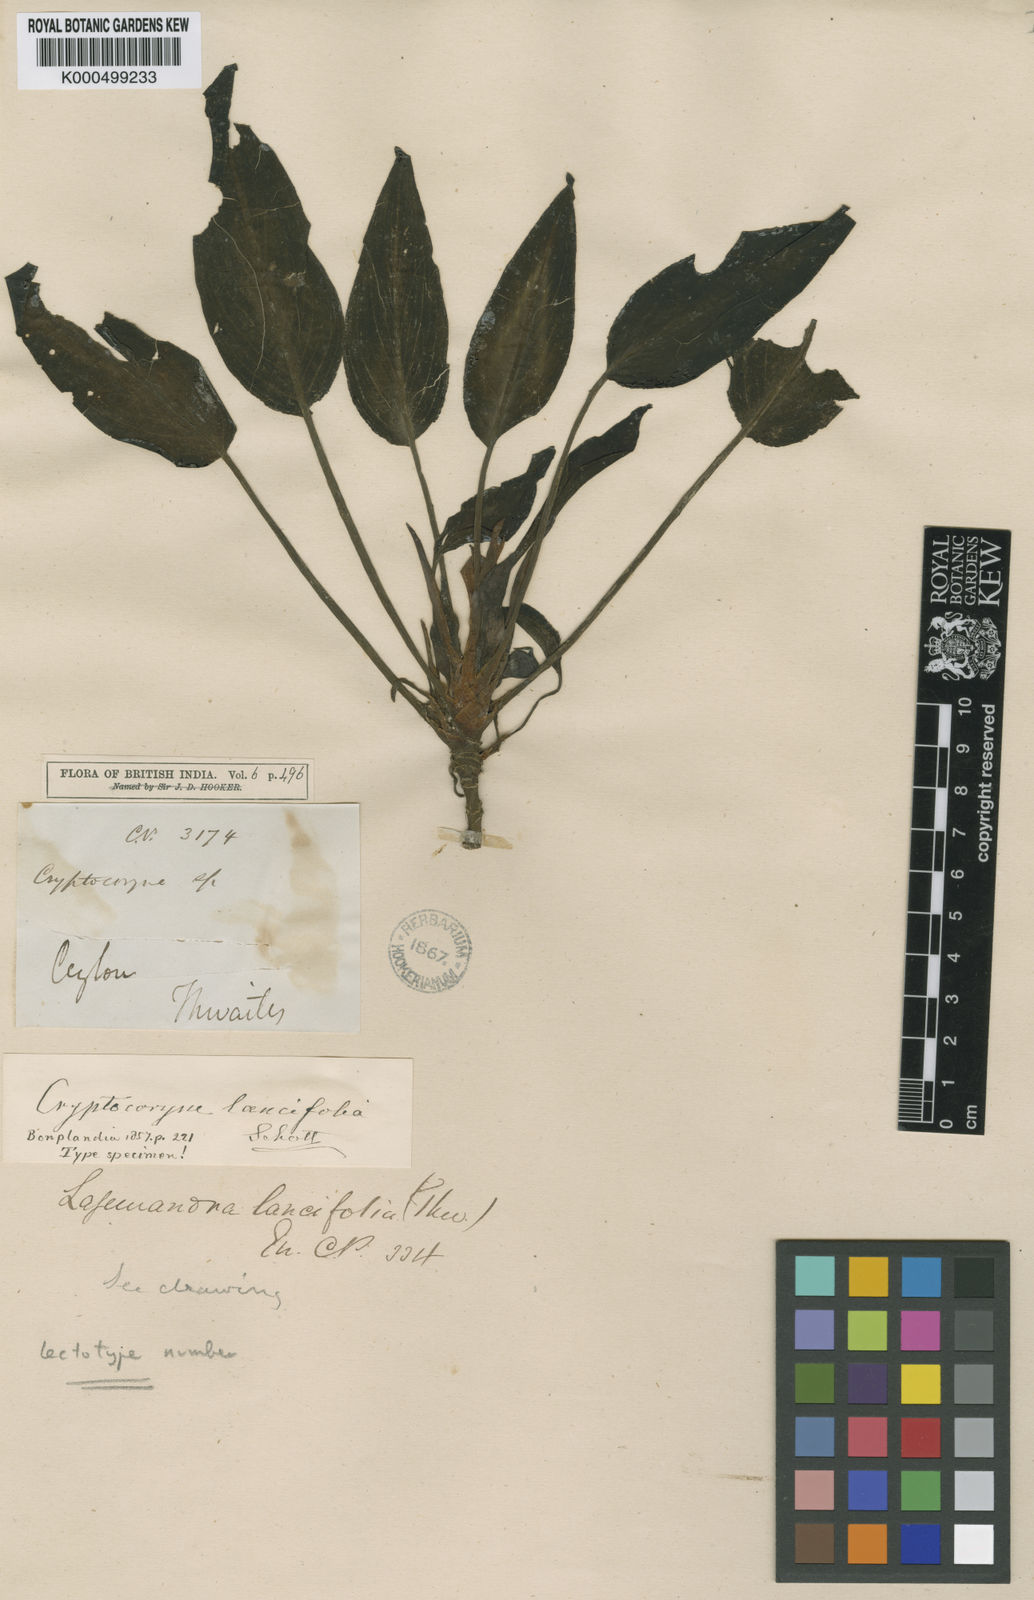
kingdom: Plantae
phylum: Tracheophyta
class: Liliopsida
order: Alismatales
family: Araceae
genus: Lagenandra
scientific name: Lagenandra lancifolia
